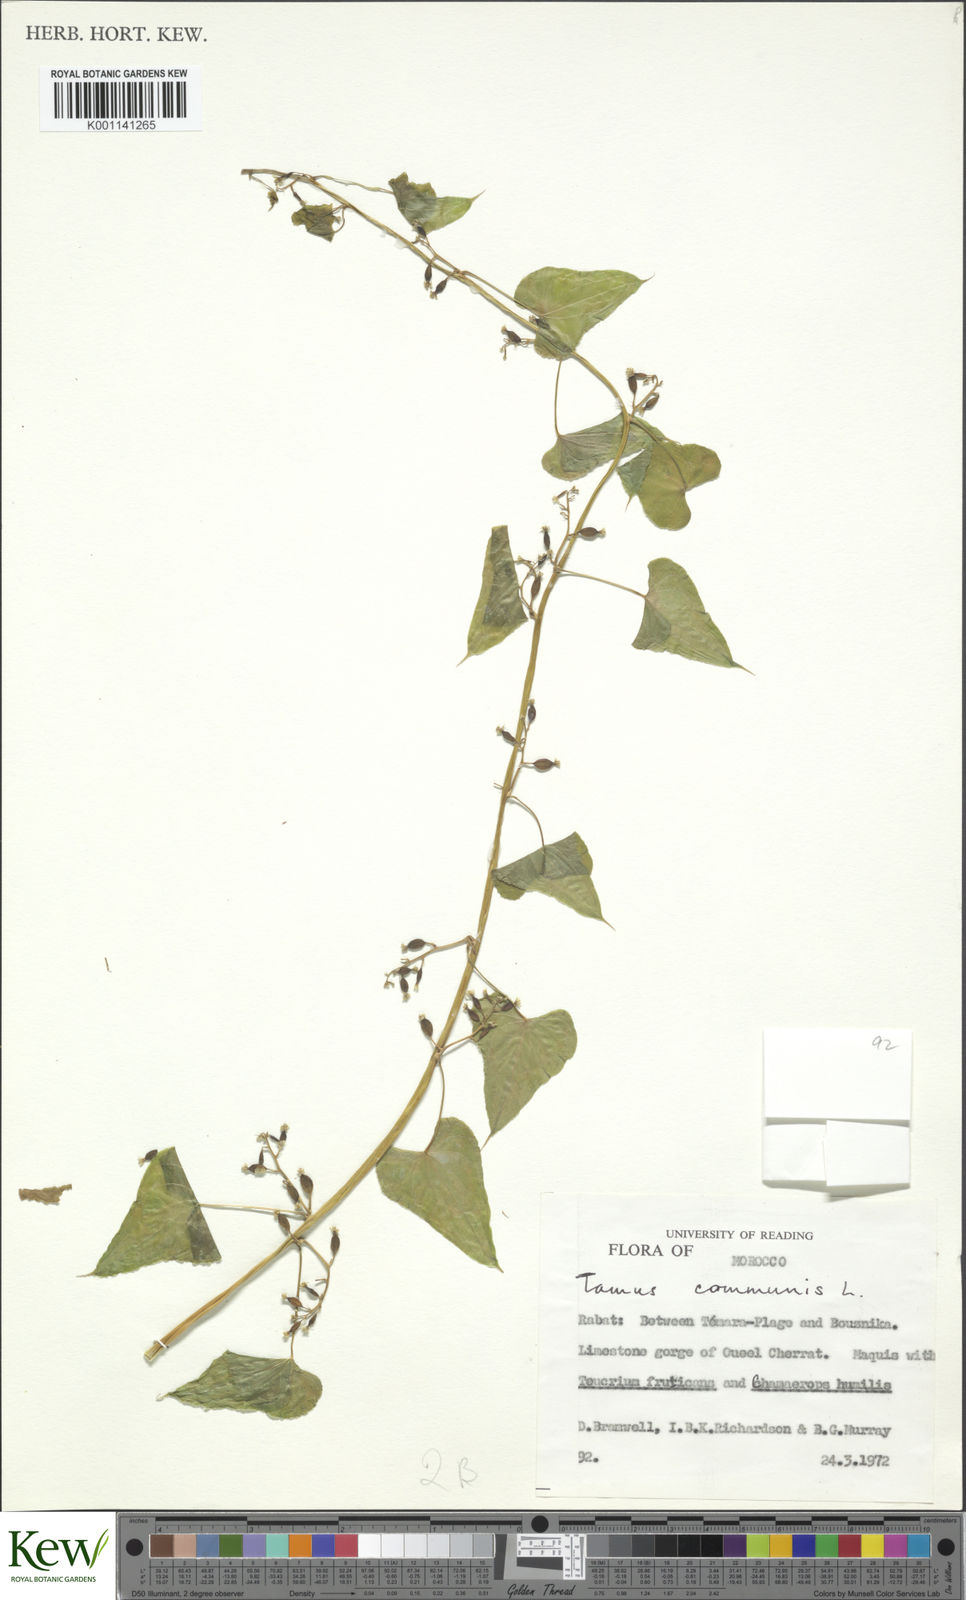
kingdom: Plantae
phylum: Tracheophyta
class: Liliopsida
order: Dioscoreales
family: Dioscoreaceae
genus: Dioscorea
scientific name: Dioscorea communis
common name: Black-bindweed
